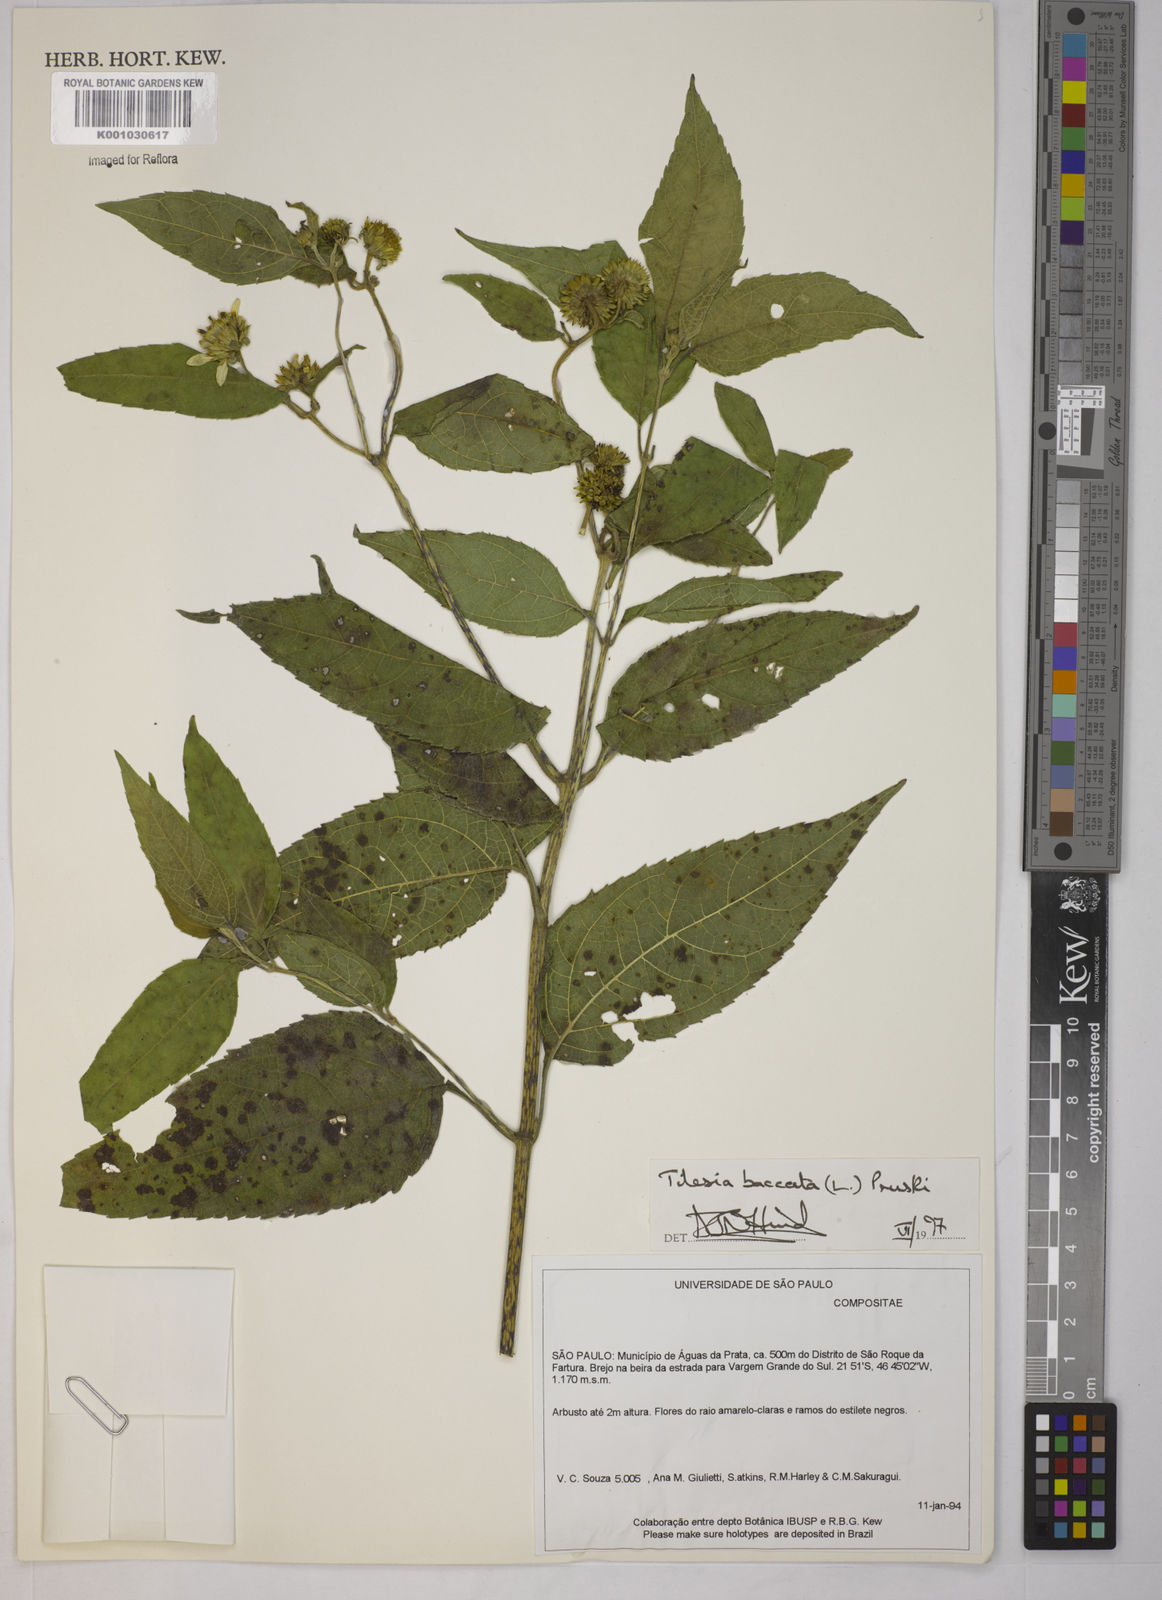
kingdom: Plantae
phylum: Tracheophyta
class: Magnoliopsida
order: Asterales
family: Asteraceae
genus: Tilesia
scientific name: Tilesia baccata
